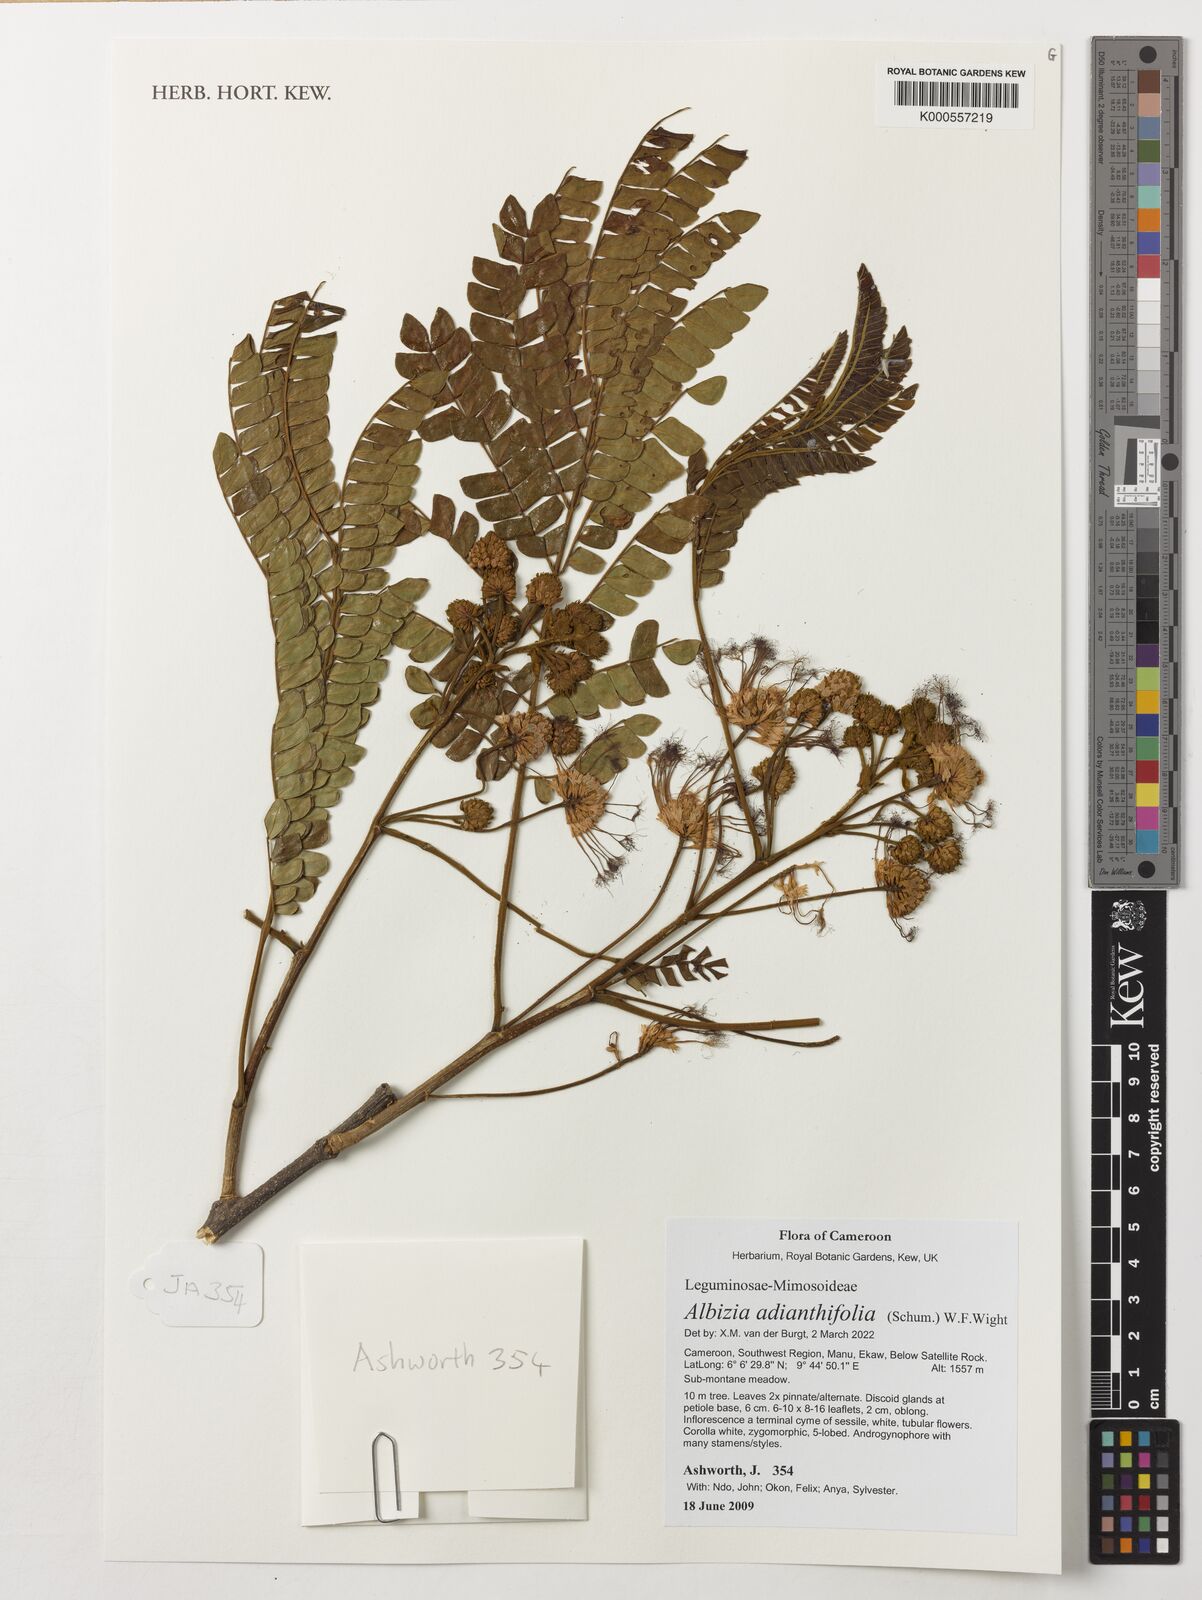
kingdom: Plantae
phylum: Tracheophyta
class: Magnoliopsida
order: Fabales
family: Fabaceae
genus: Albizia
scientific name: Albizia adianthifolia
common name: West african albizia
